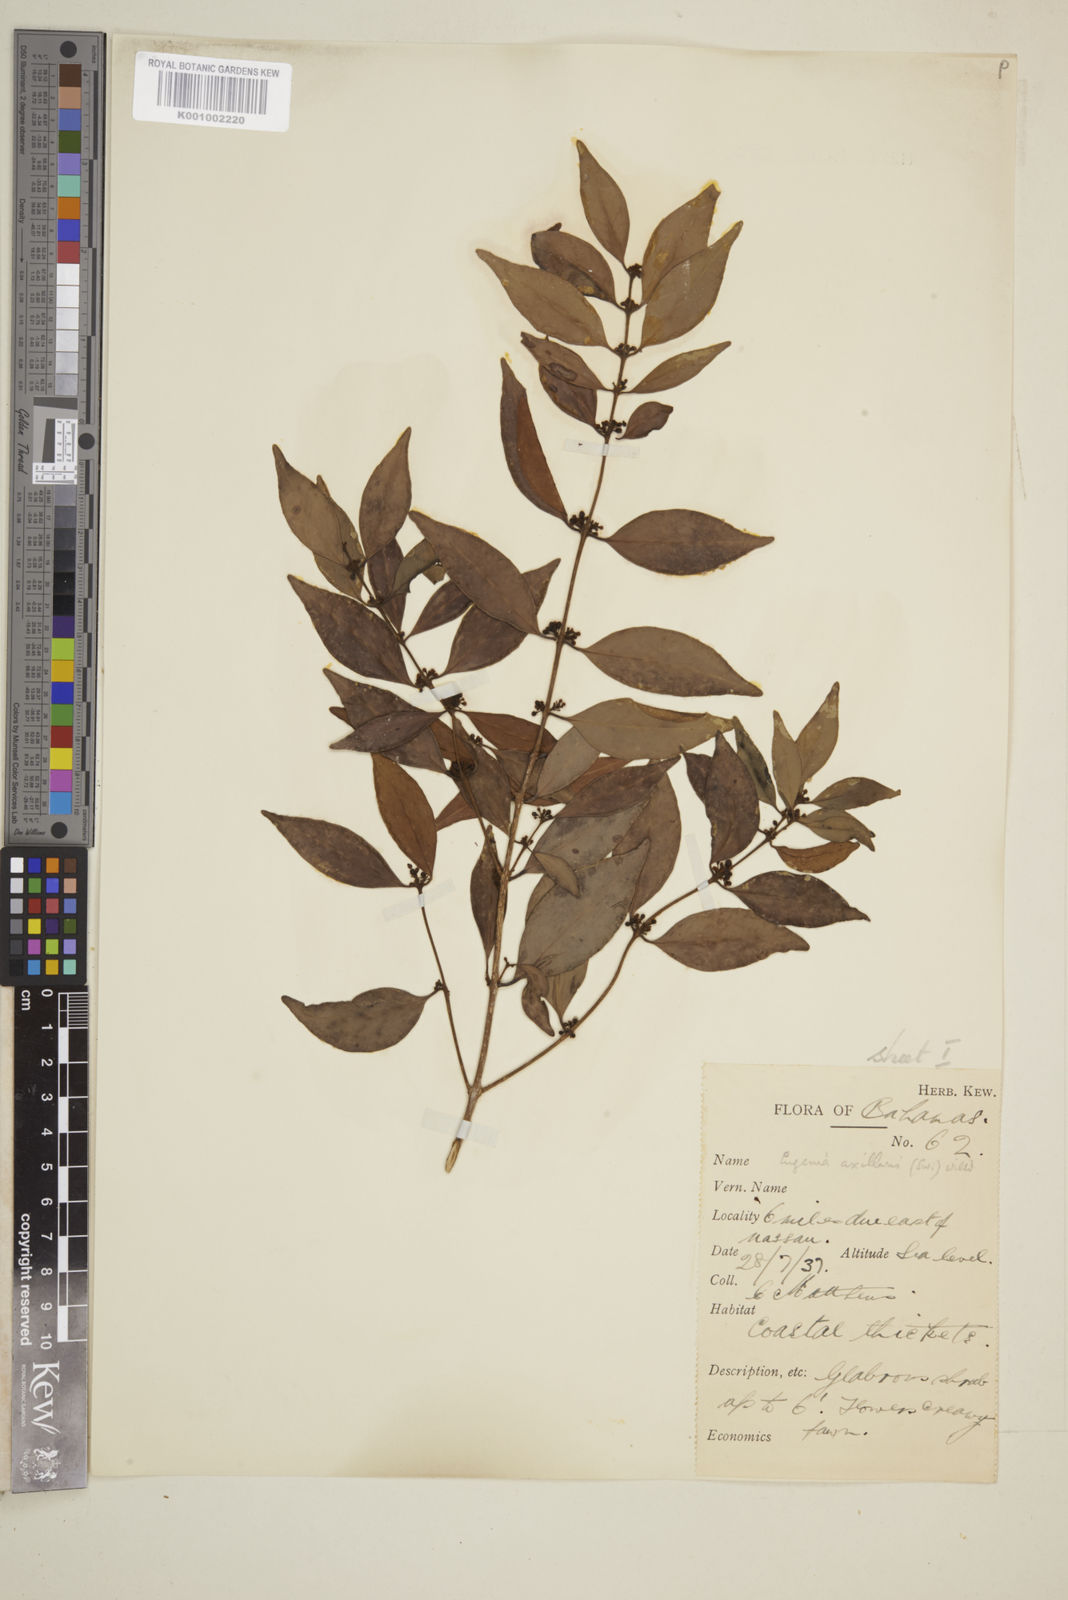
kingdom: Plantae
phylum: Tracheophyta
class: Magnoliopsida
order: Myrtales
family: Myrtaceae
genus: Eugenia
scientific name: Eugenia axillaris
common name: Choaky berry
